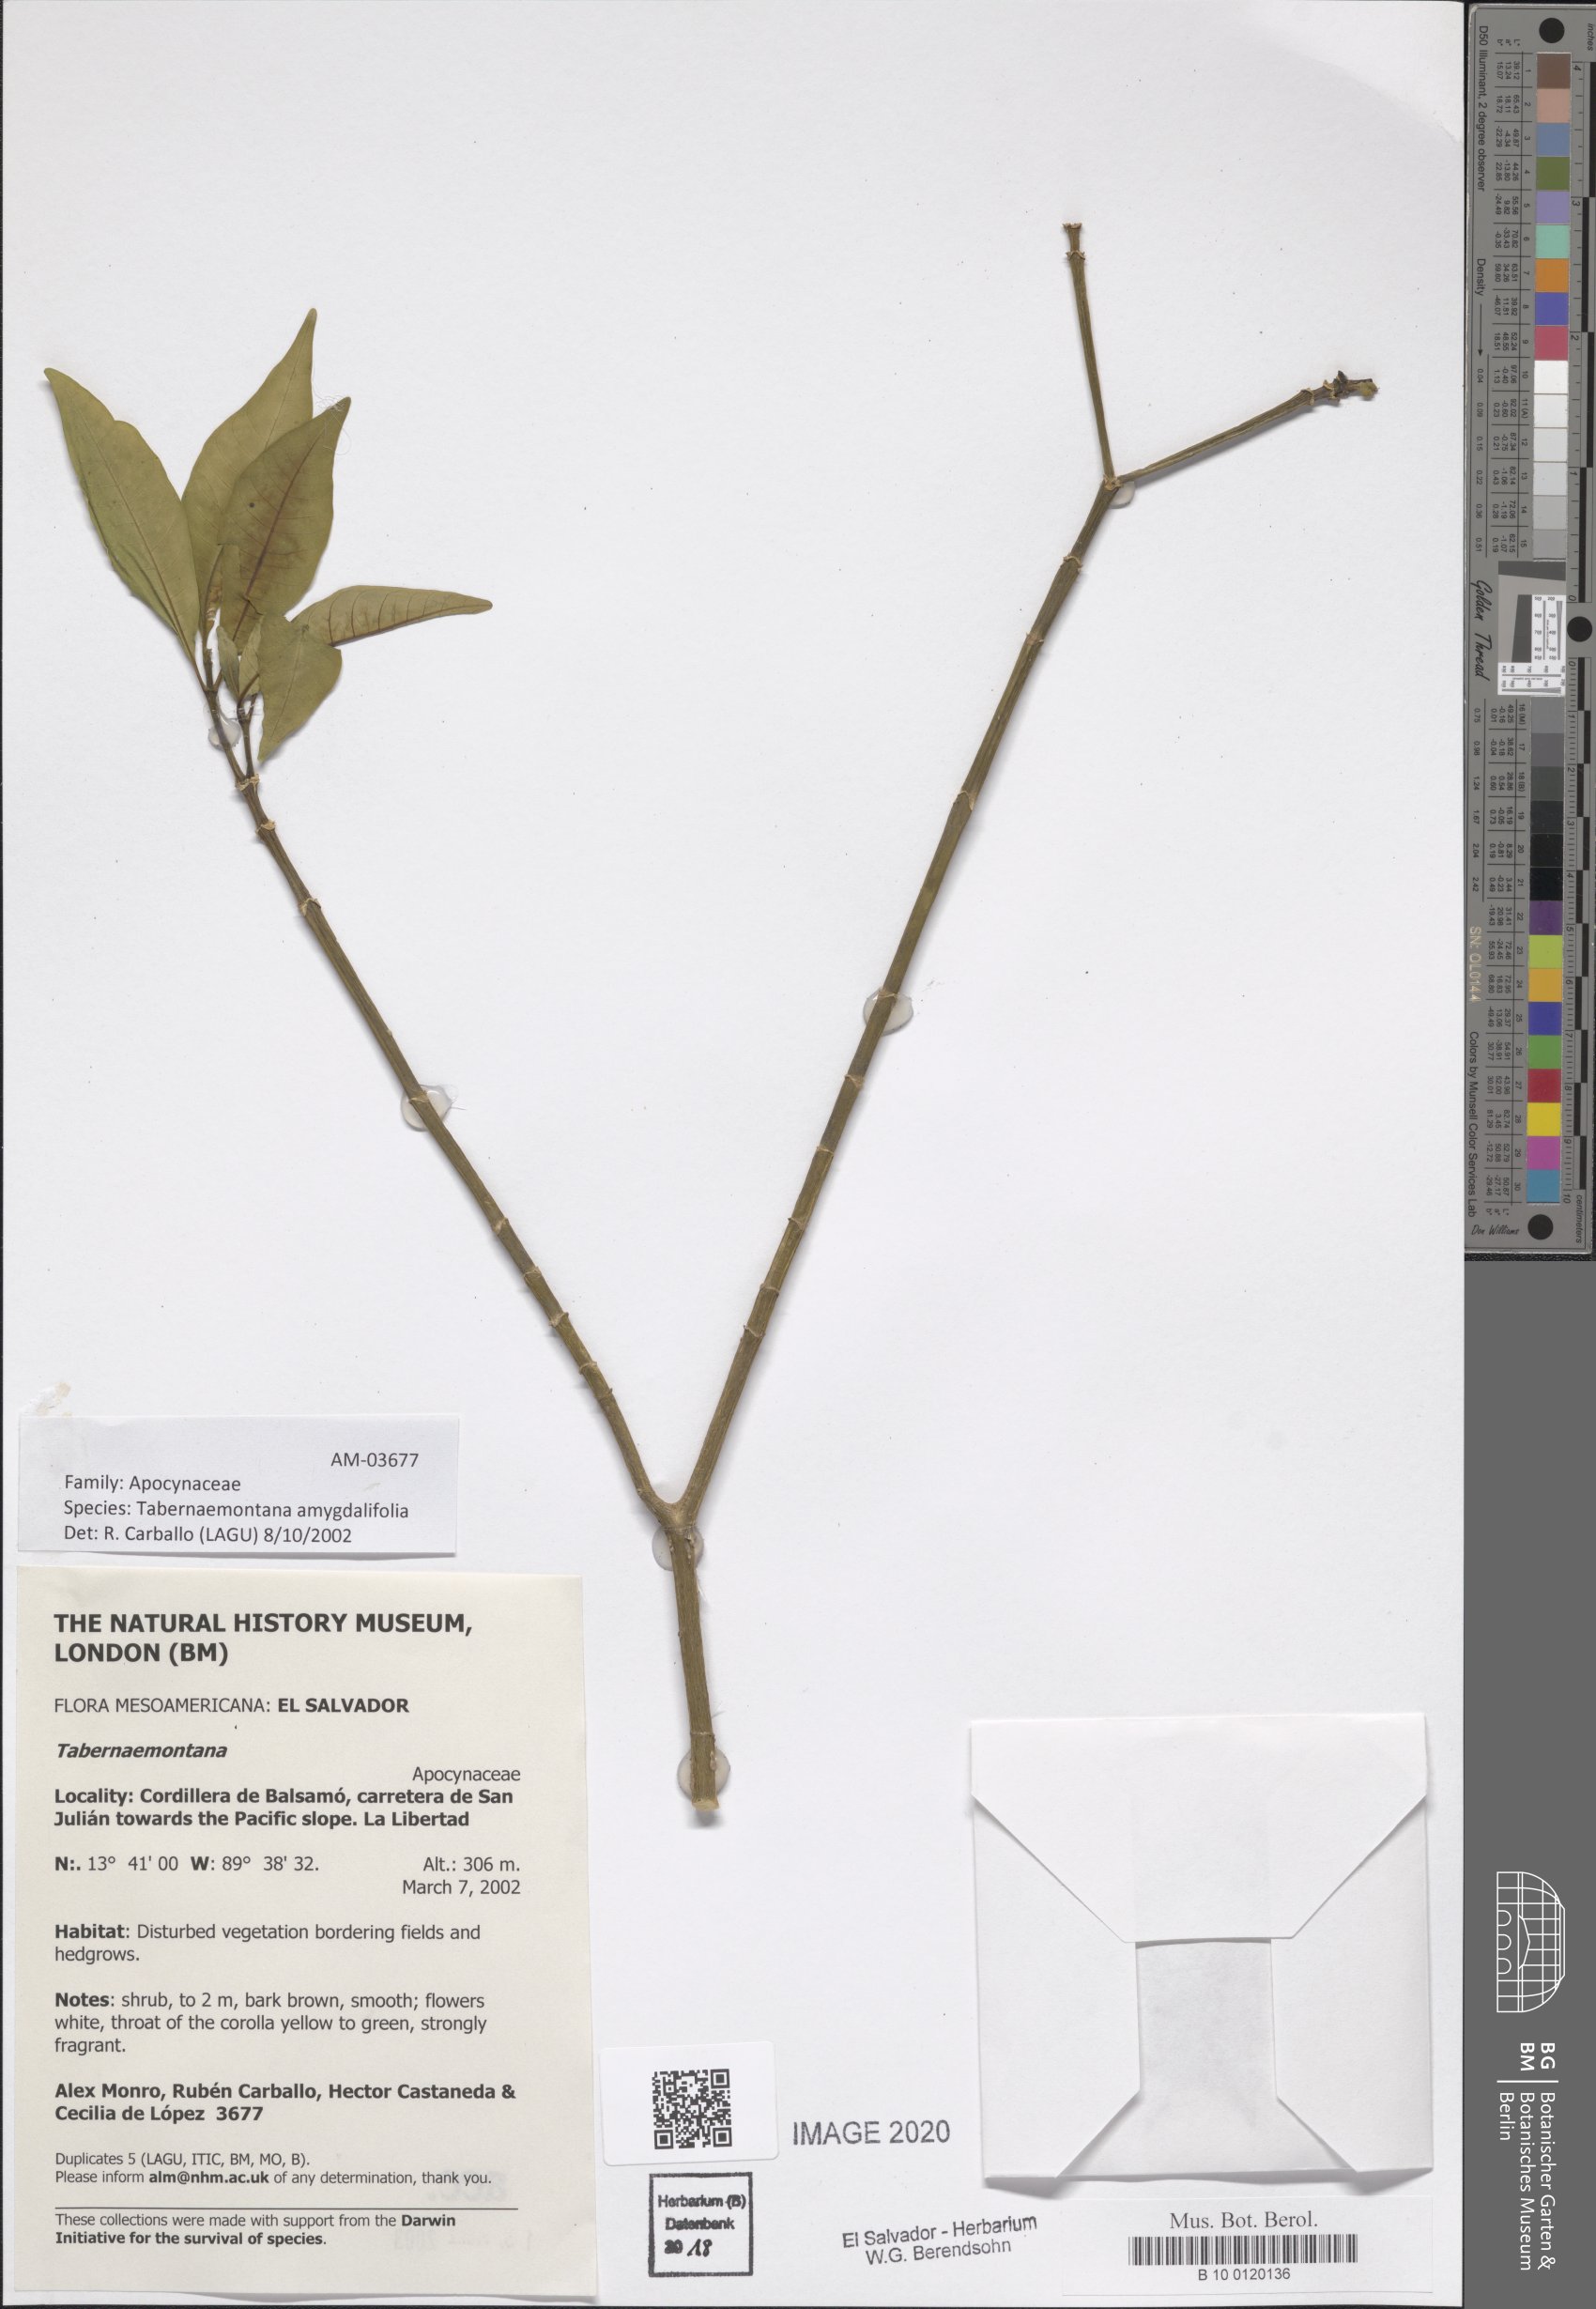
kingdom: Plantae
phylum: Tracheophyta
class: Magnoliopsida
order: Gentianales
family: Apocynaceae
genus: Tabernaemontana
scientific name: Tabernaemontana amygdalifolia
